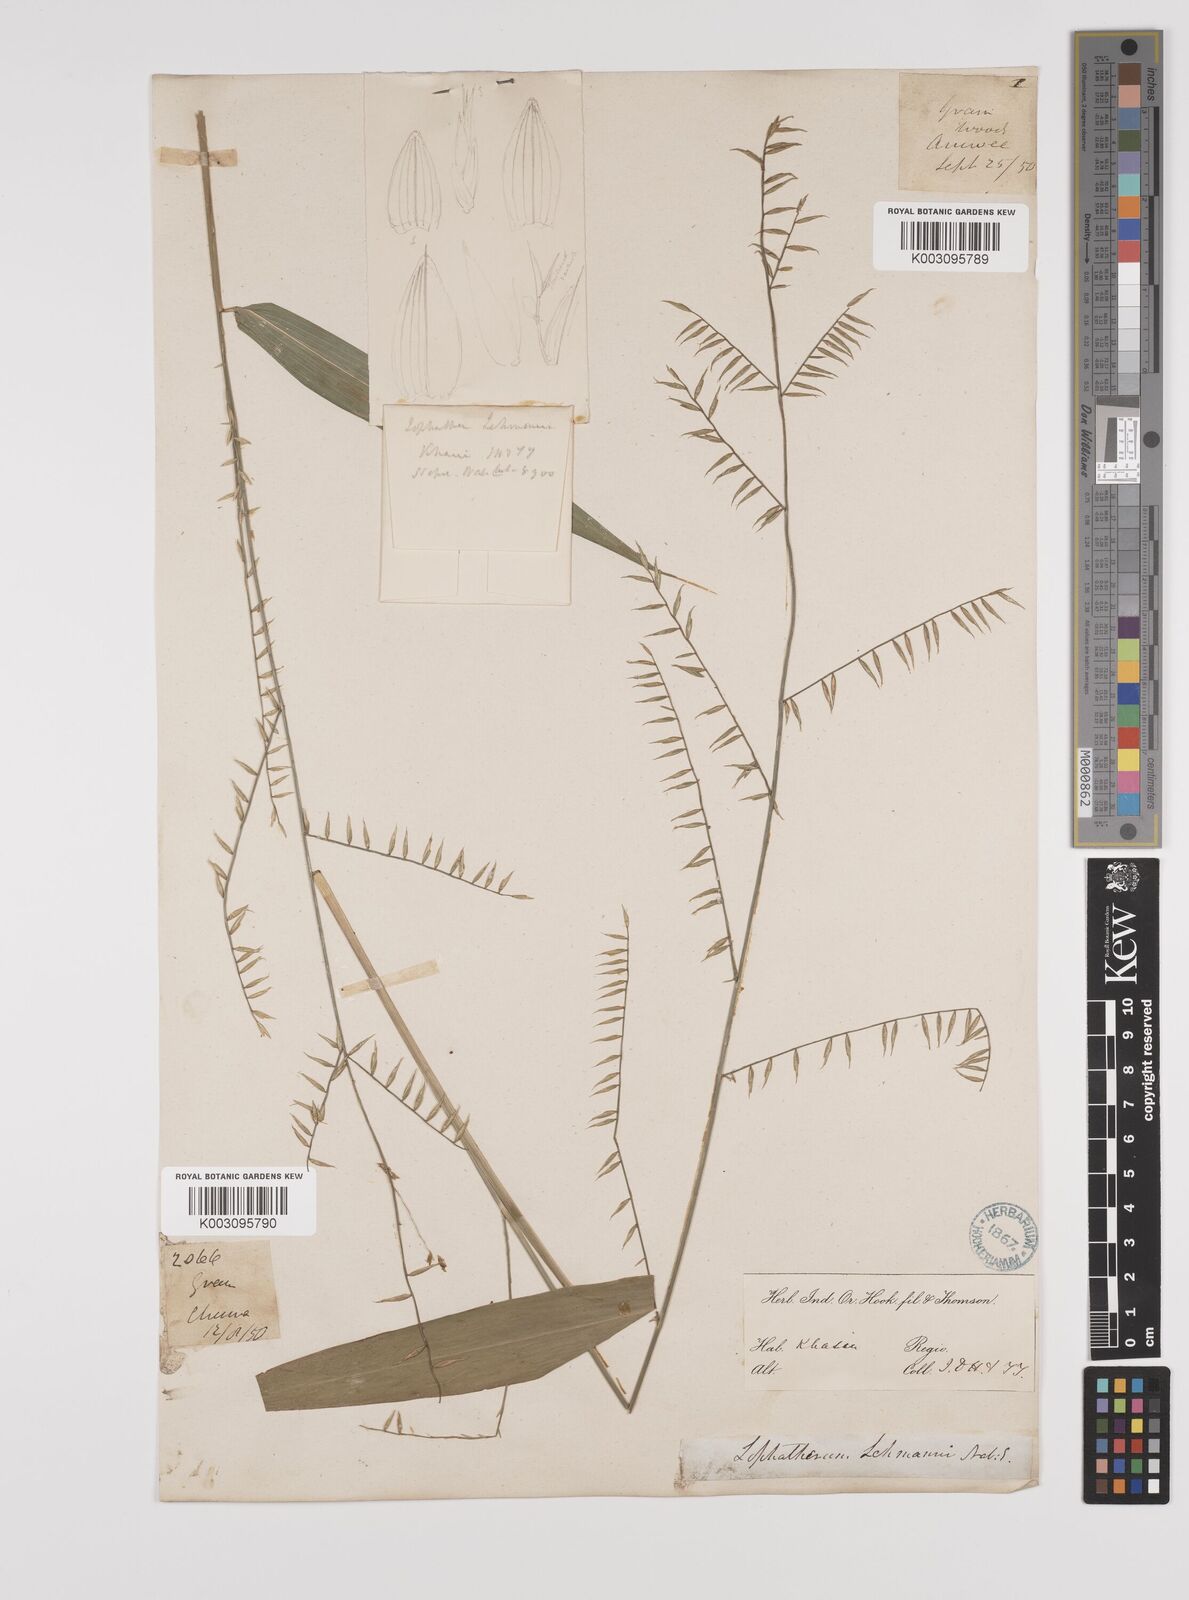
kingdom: Plantae
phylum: Tracheophyta
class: Liliopsida
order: Poales
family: Poaceae
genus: Lophatherum
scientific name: Lophatherum gracile
